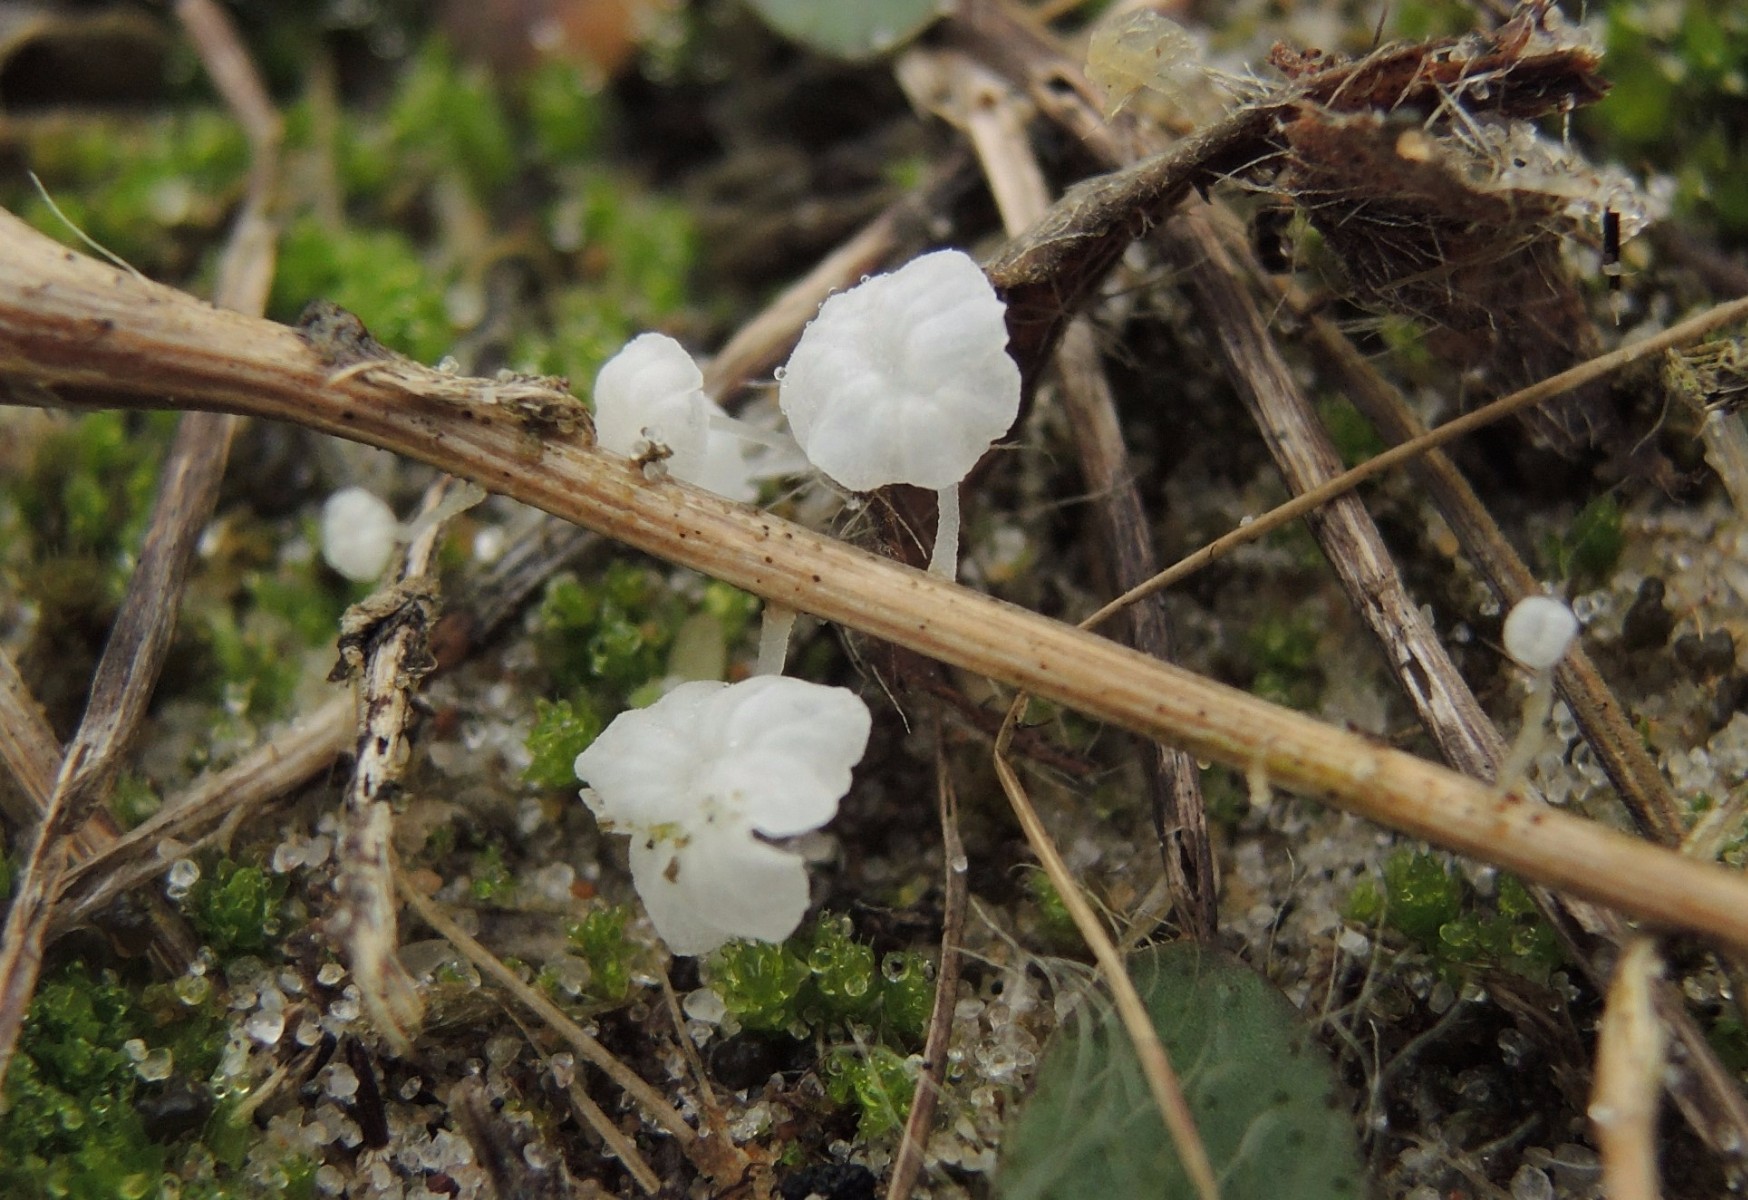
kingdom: Fungi
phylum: Basidiomycota
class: Agaricomycetes
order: Agaricales
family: Mycenaceae
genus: Hemimycena
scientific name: Hemimycena hirsuta
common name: håret huesvamp
